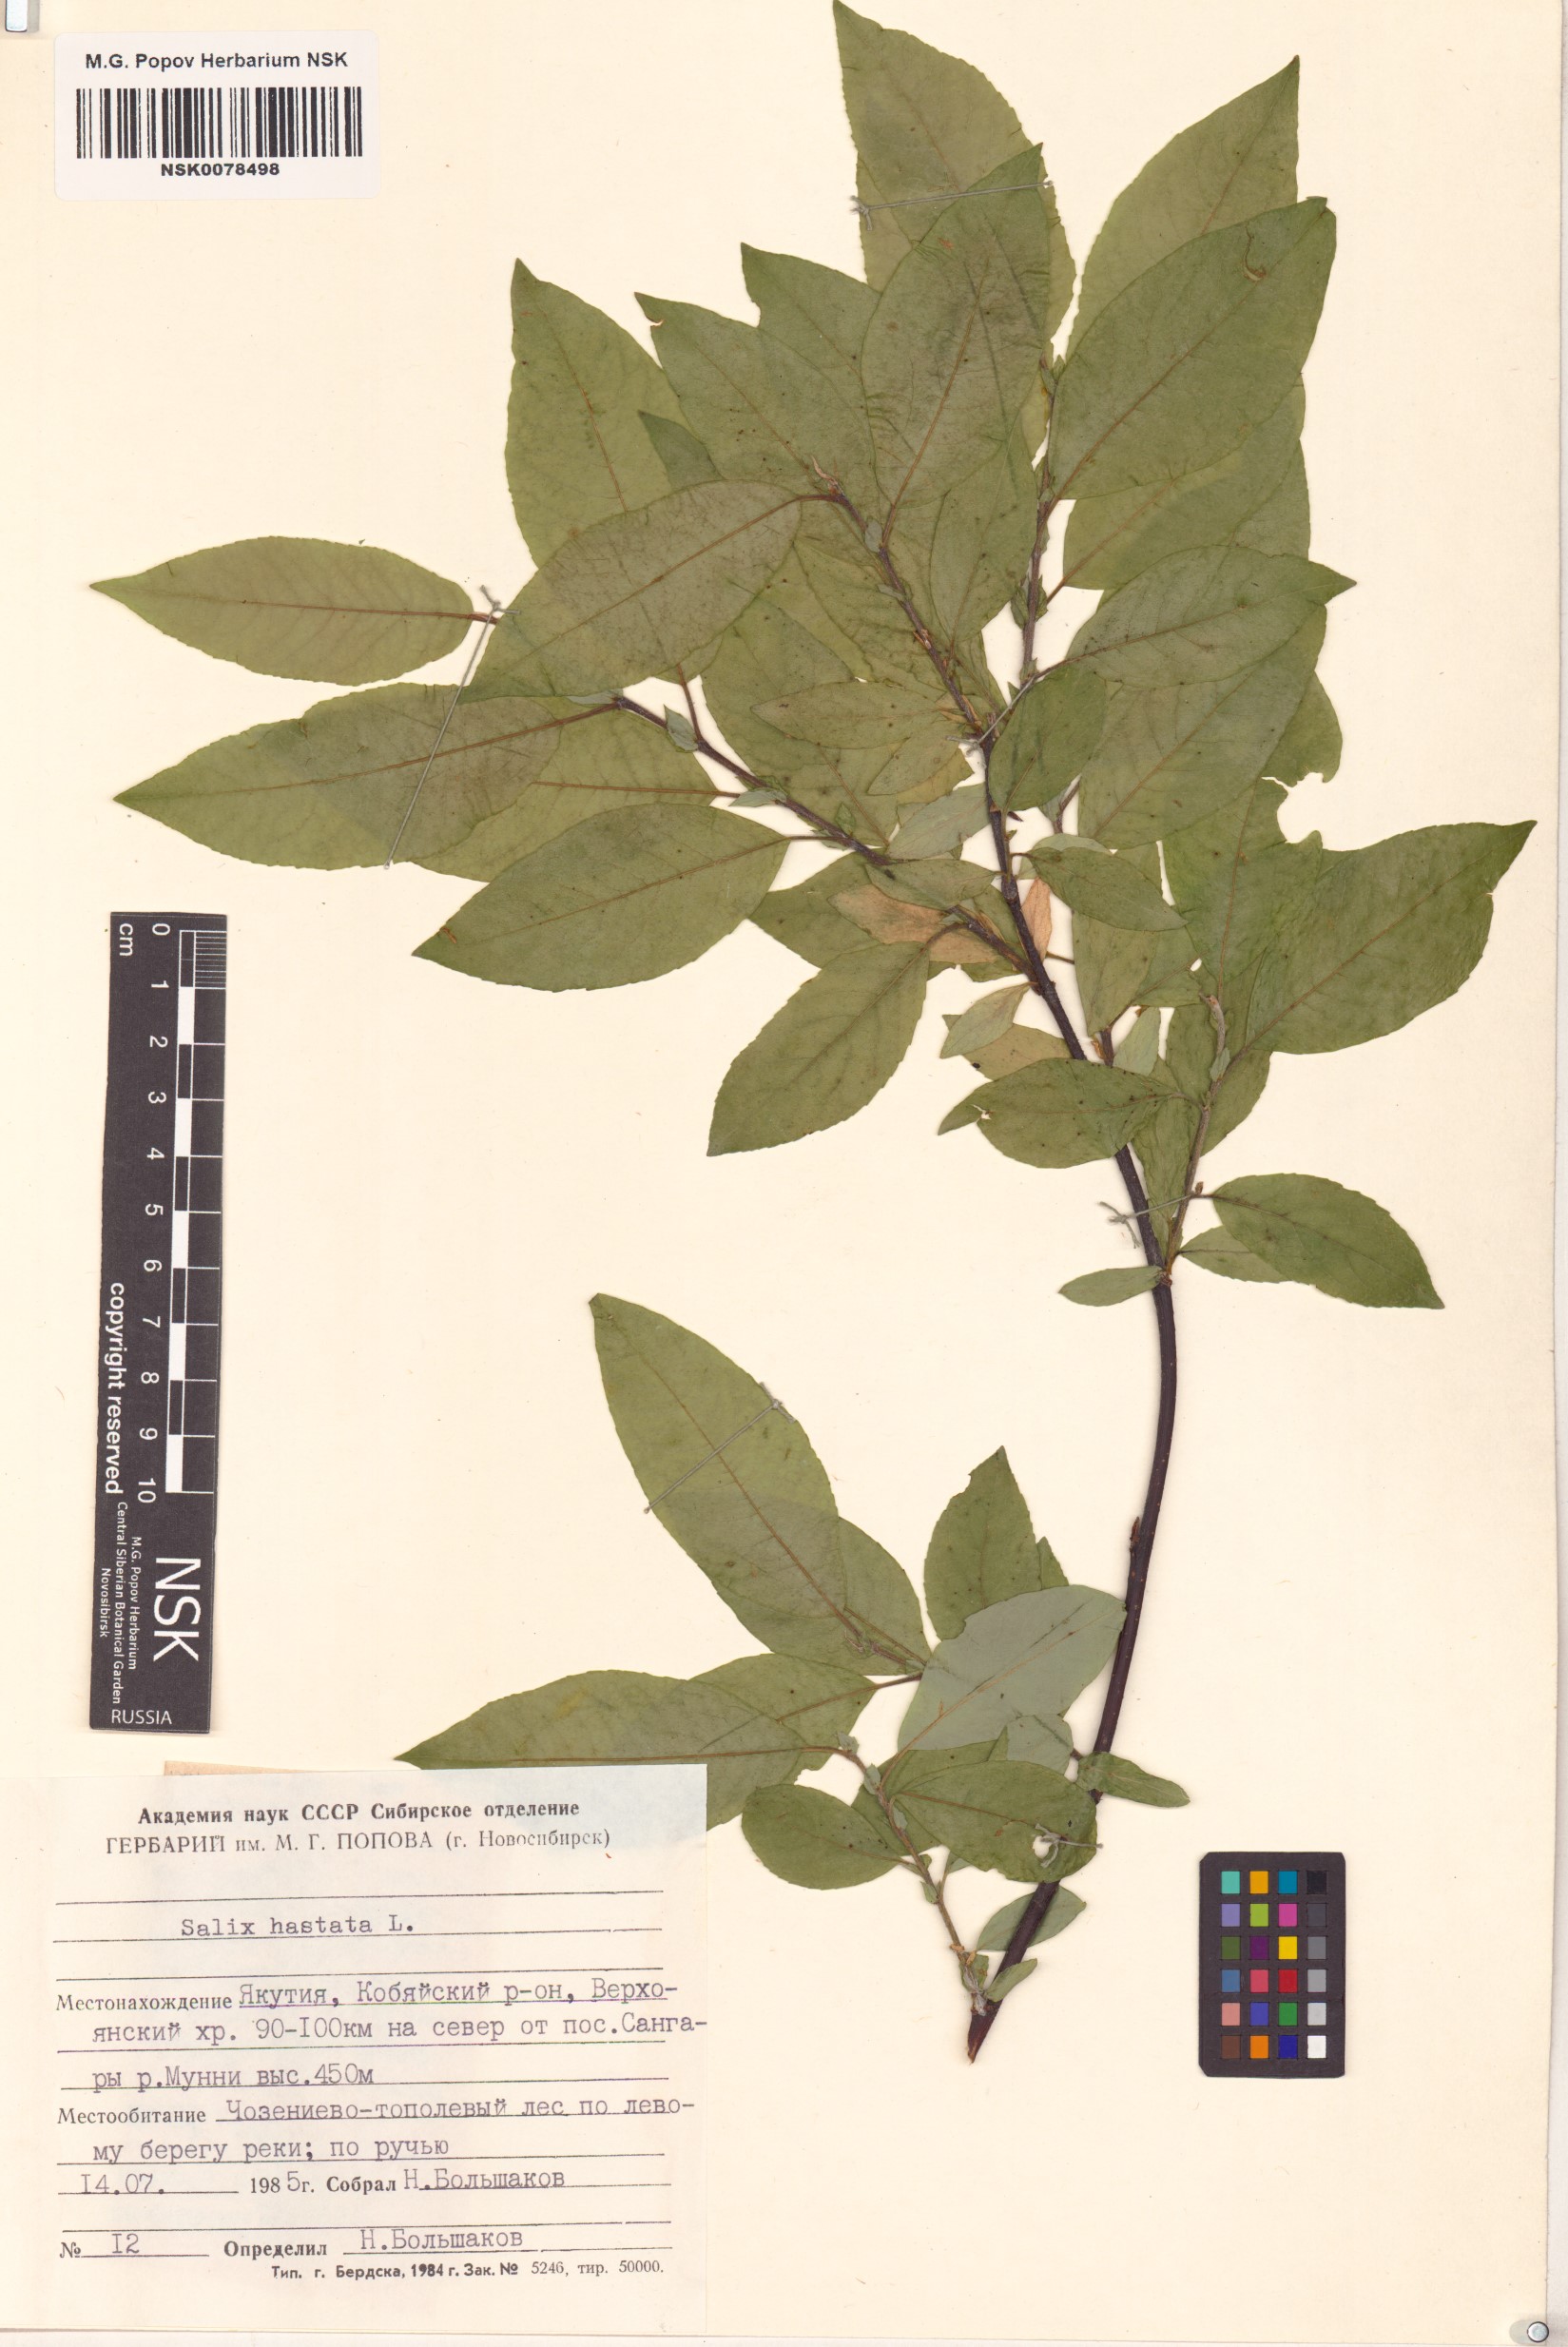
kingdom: Plantae
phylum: Tracheophyta
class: Magnoliopsida
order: Malpighiales
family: Salicaceae
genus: Salix
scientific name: Salix hastata
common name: Halberd willow
